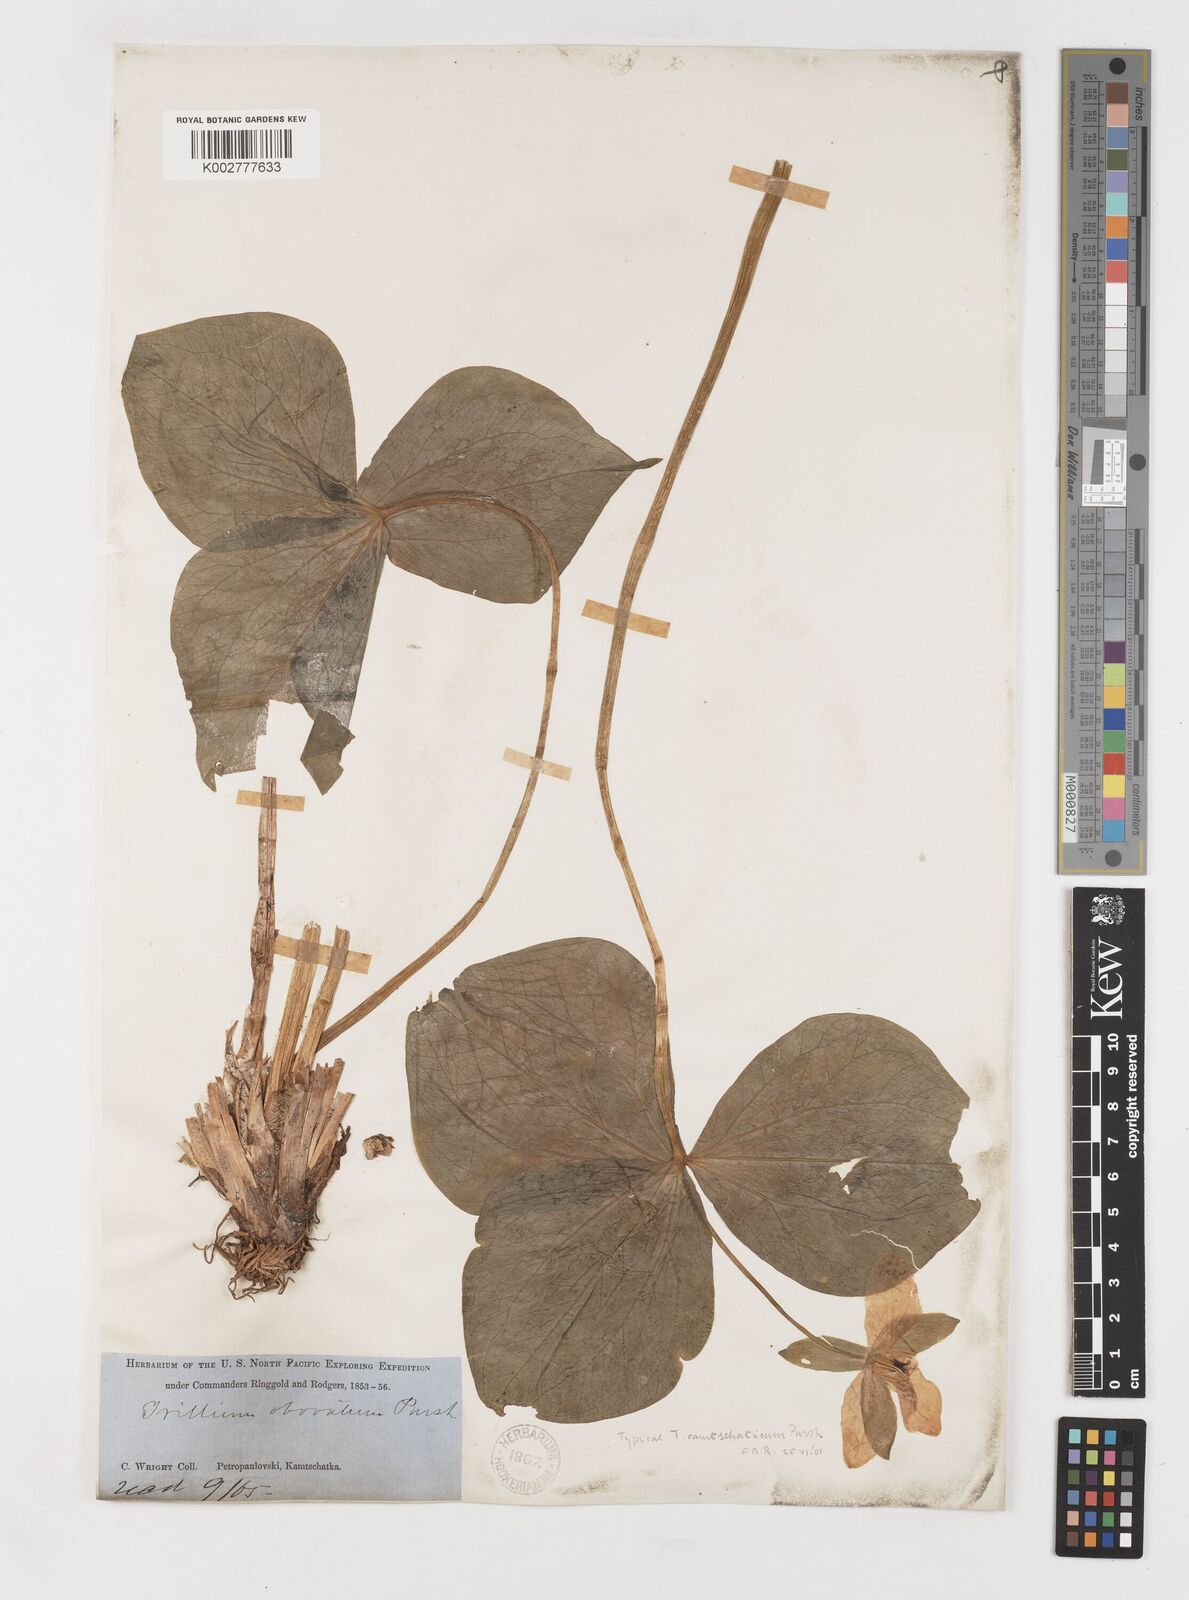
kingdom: Plantae
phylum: Tracheophyta
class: Liliopsida
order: Liliales
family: Melanthiaceae
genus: Trillium
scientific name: Trillium erectum
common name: Purple trillium
